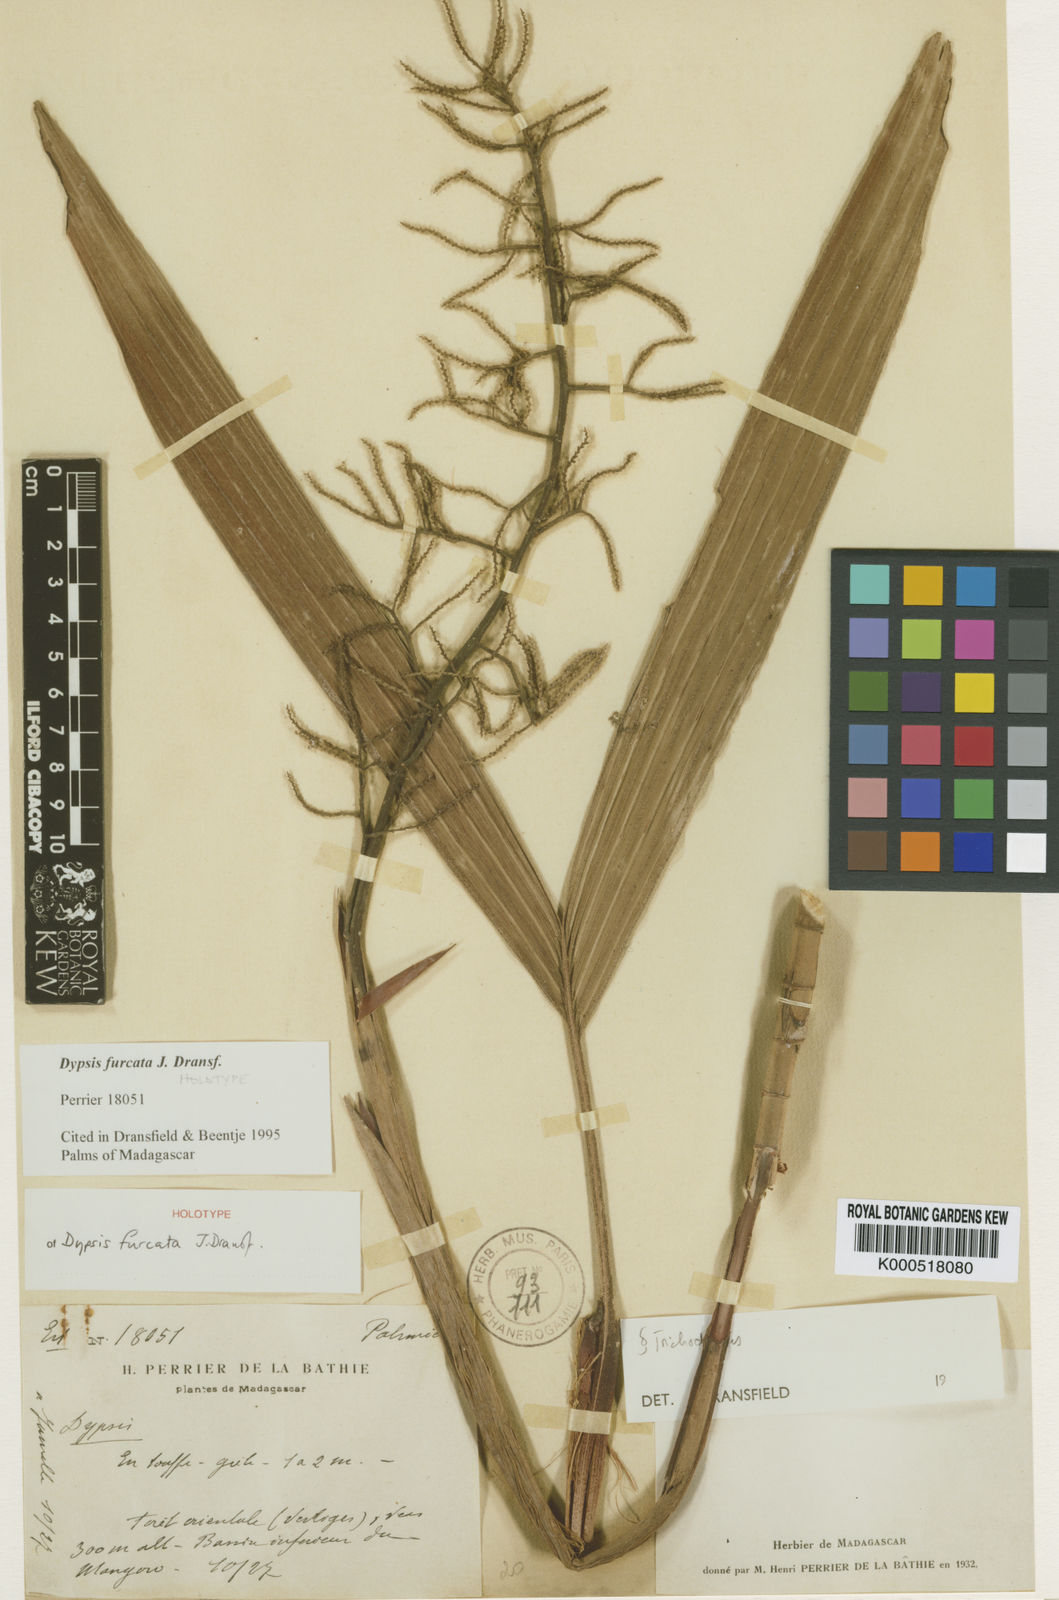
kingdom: Plantae
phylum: Tracheophyta
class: Liliopsida
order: Arecales
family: Arecaceae
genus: Dypsis
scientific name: Dypsis furcata
